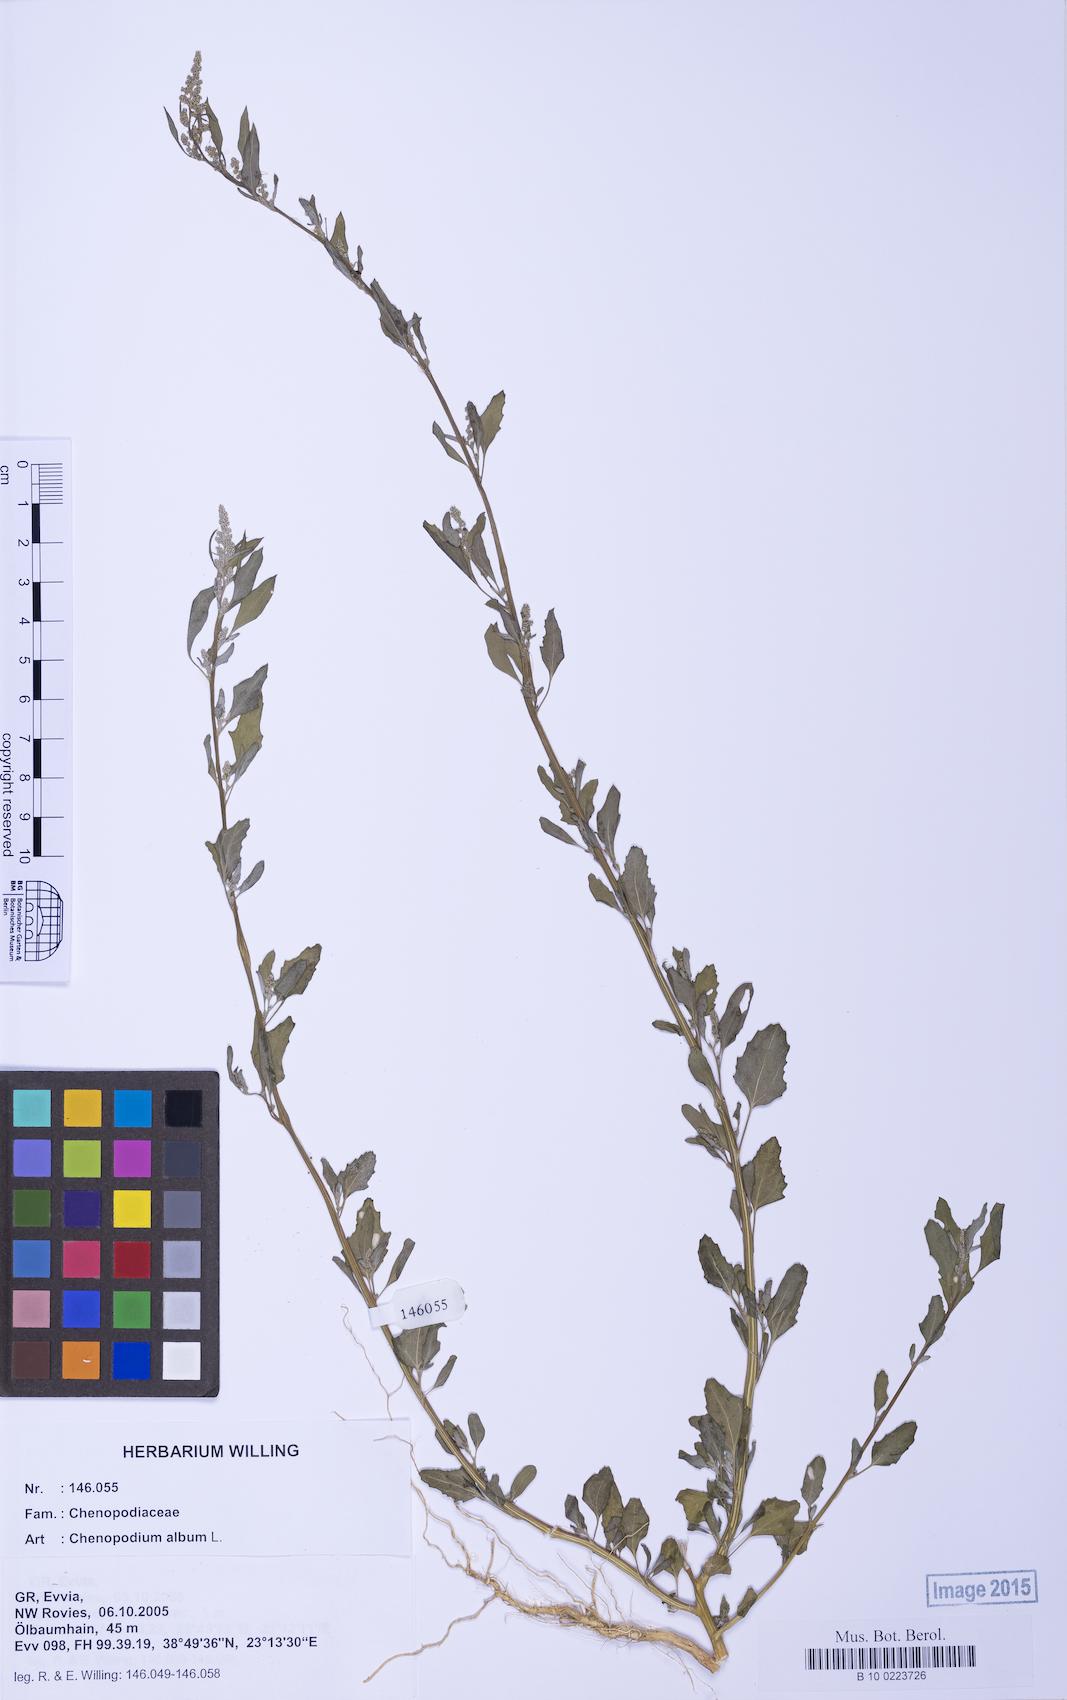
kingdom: Plantae
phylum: Tracheophyta
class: Magnoliopsida
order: Caryophyllales
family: Amaranthaceae
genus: Chenopodium
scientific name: Chenopodium album
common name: Fat-hen
